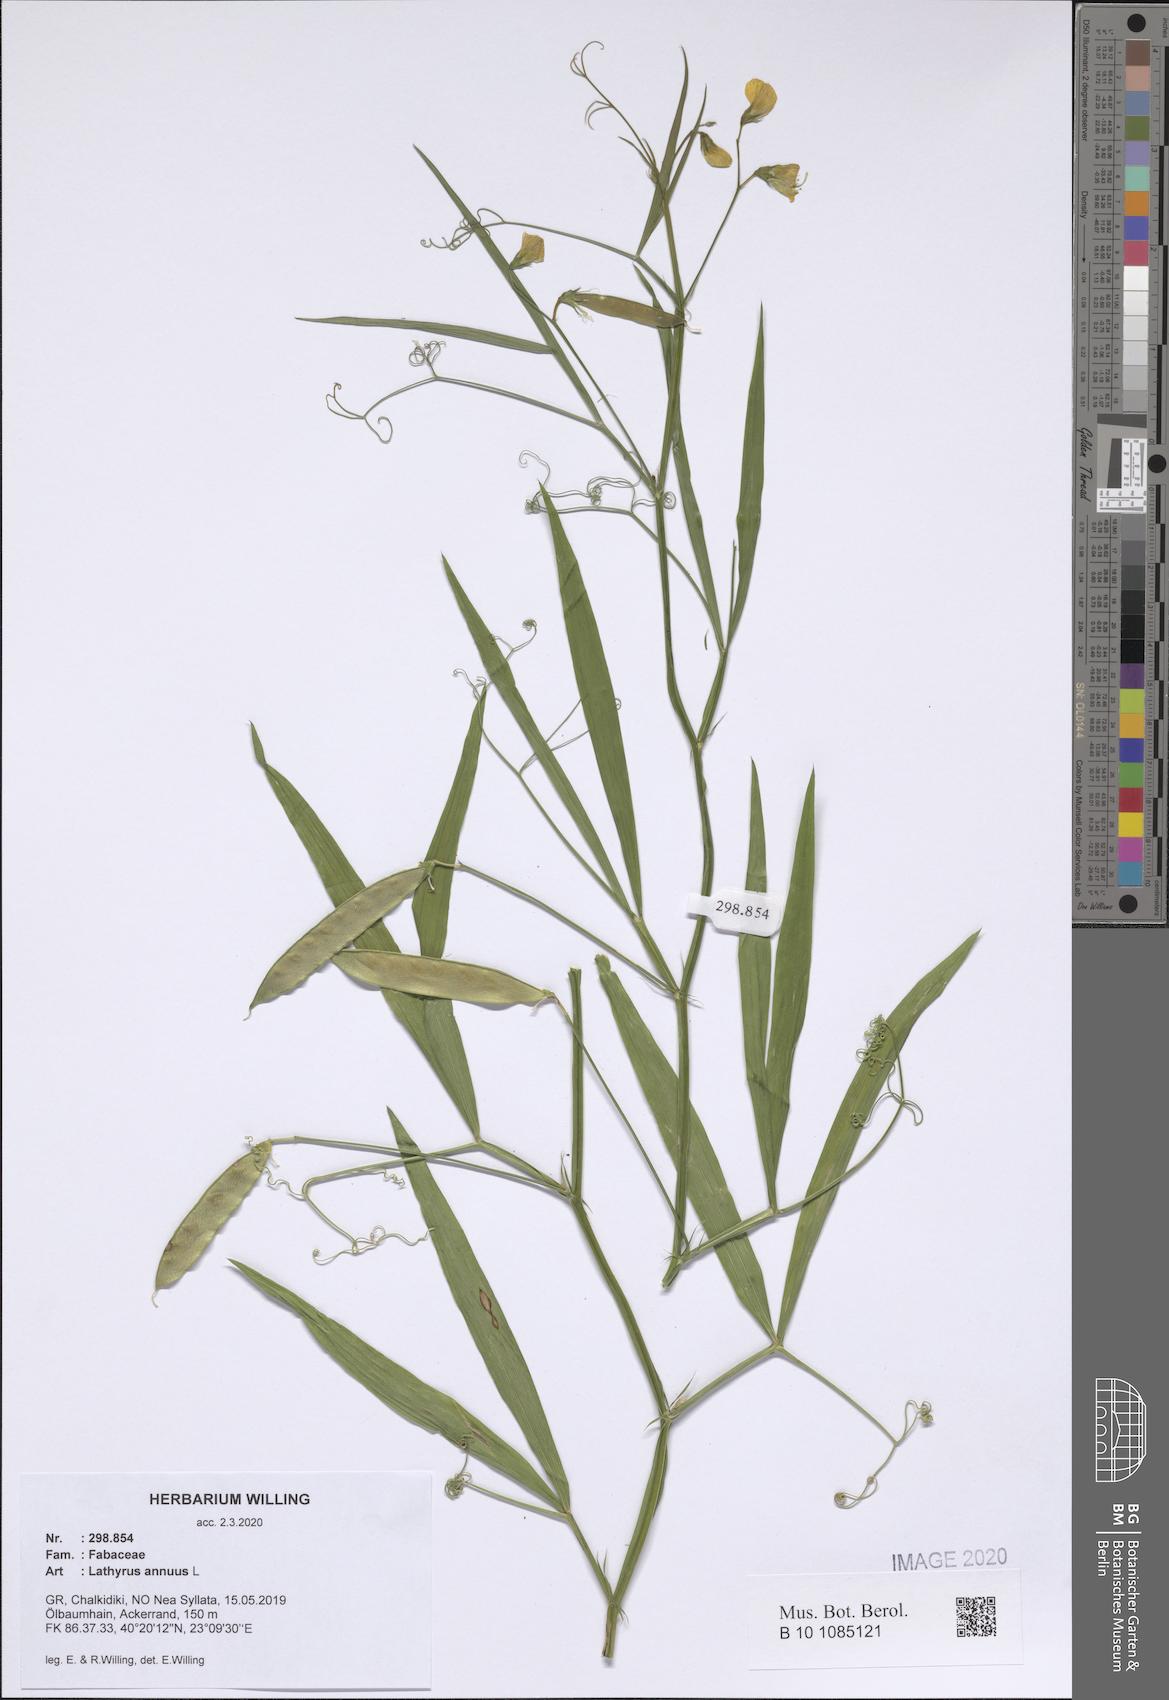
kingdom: Plantae
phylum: Tracheophyta
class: Magnoliopsida
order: Fabales
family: Fabaceae
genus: Lathyrus
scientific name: Lathyrus annuus
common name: Fodder pea
